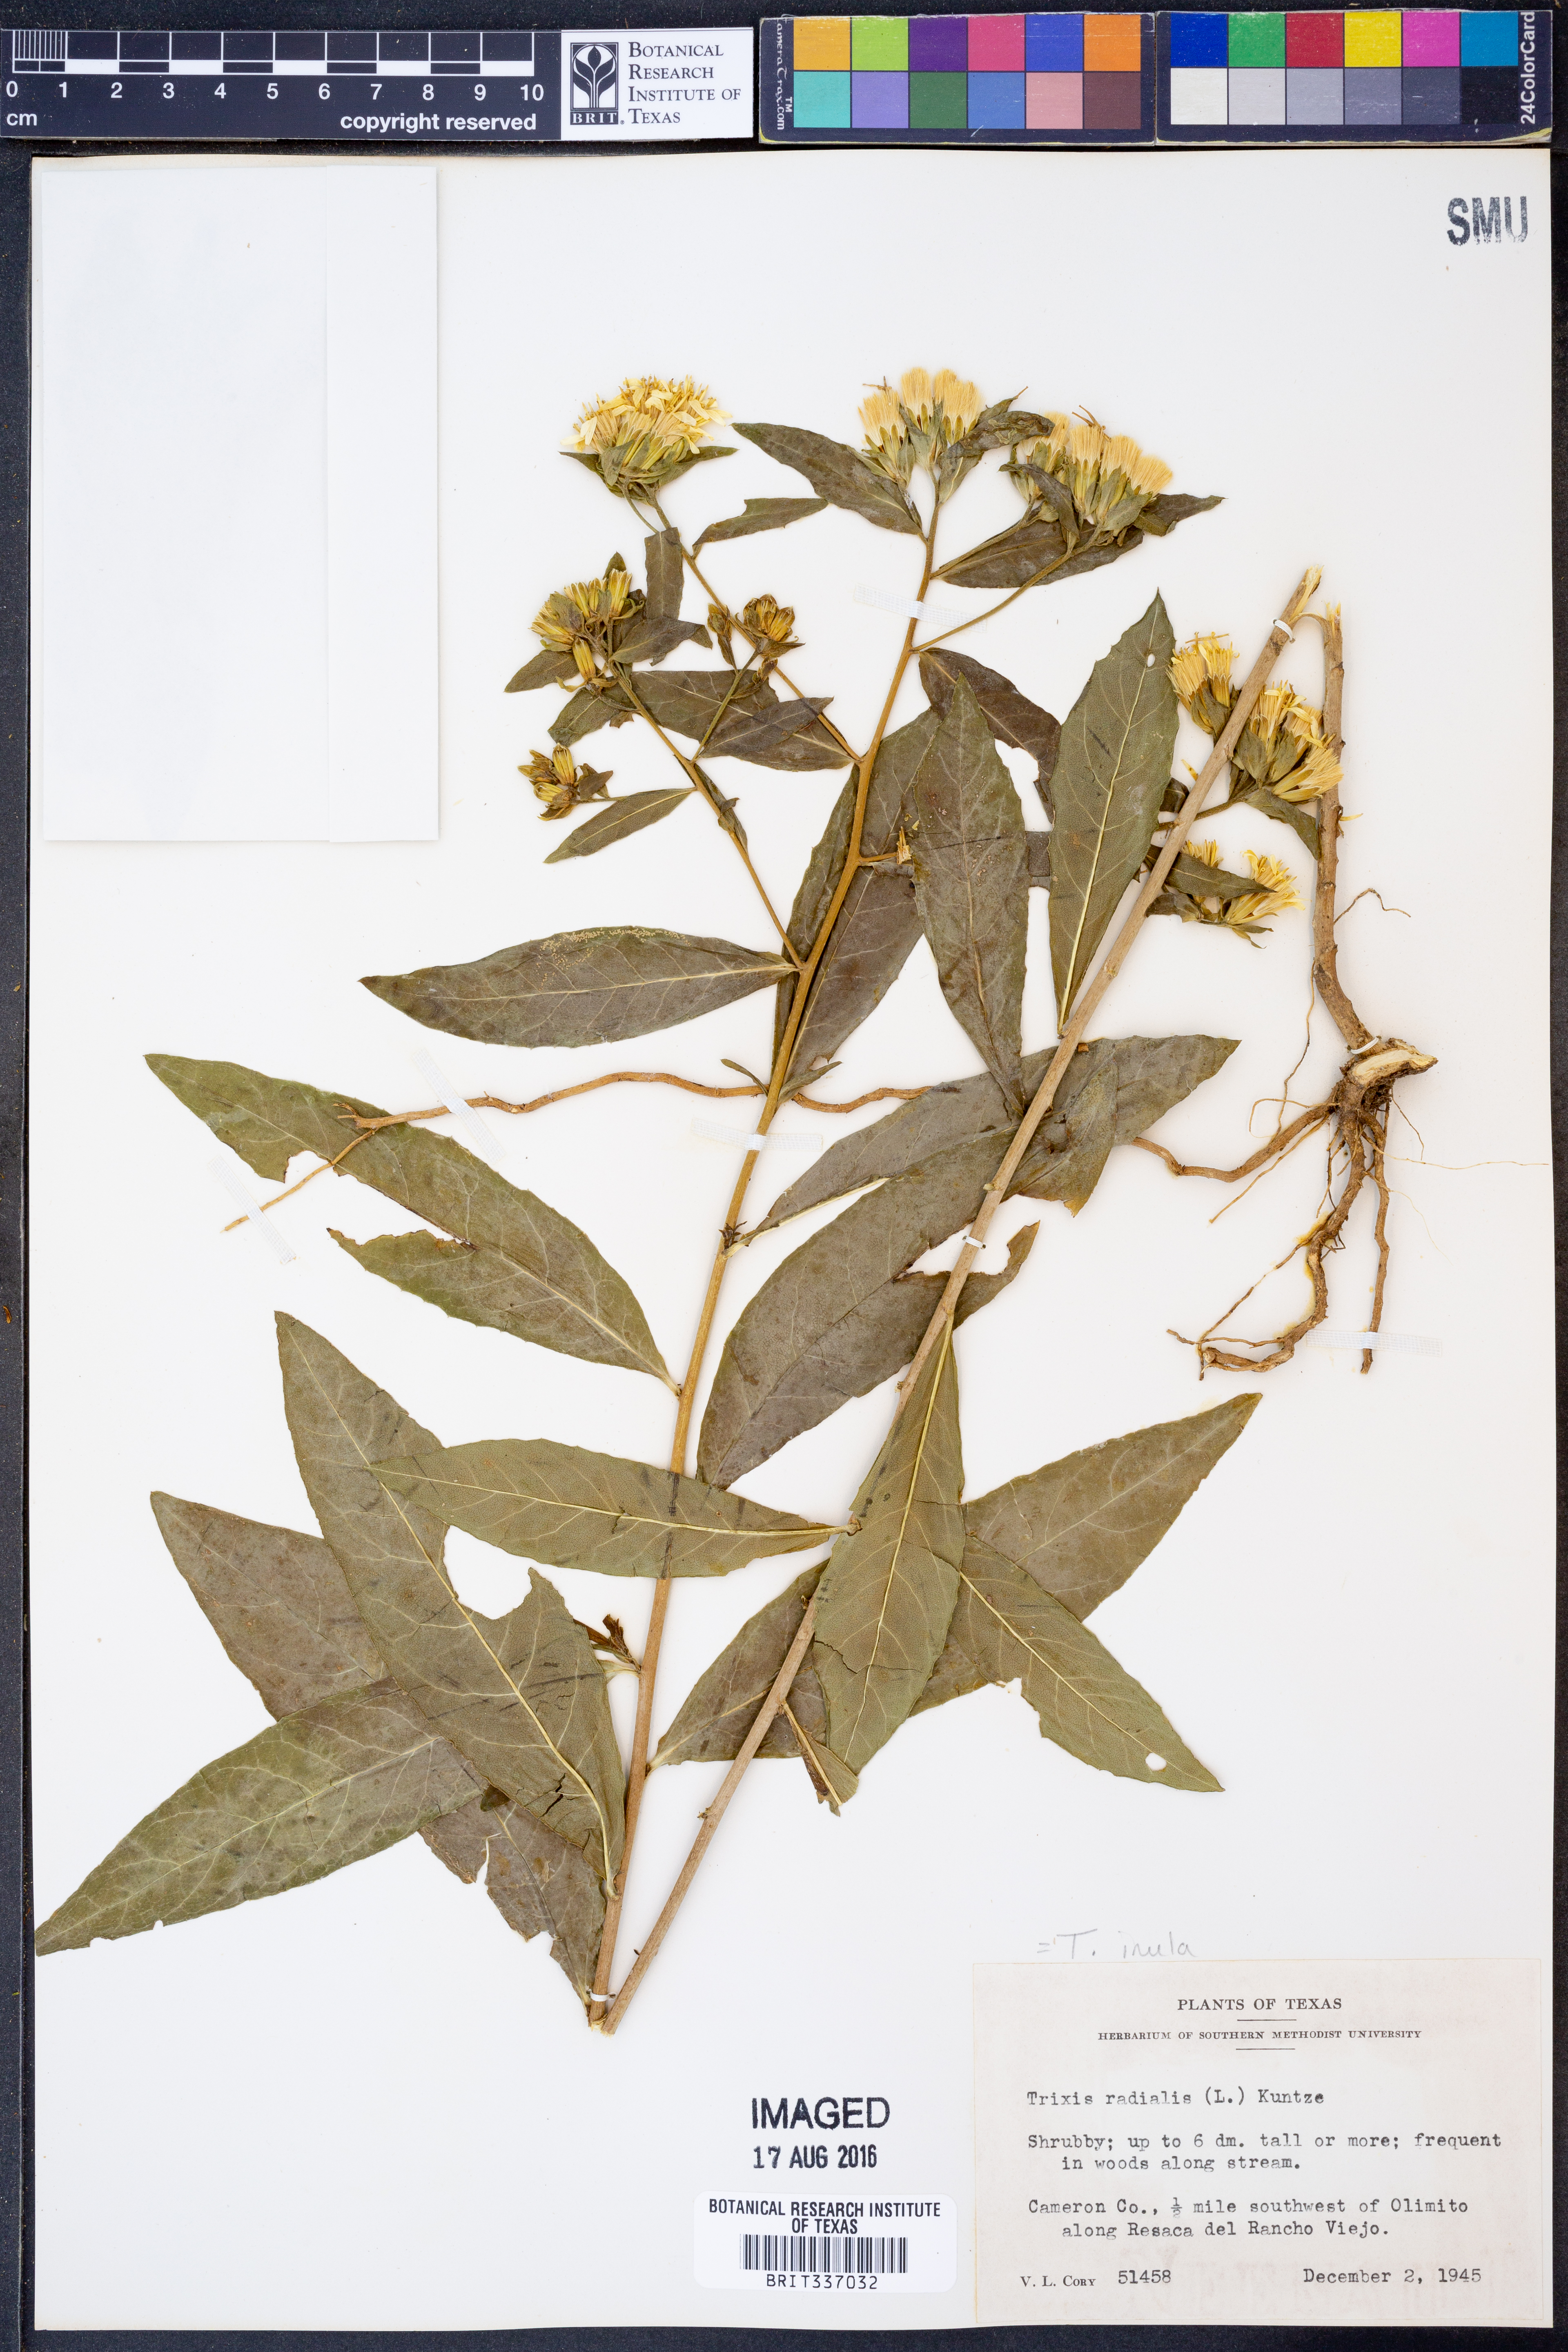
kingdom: Plantae
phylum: Tracheophyta
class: Magnoliopsida
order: Asterales
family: Asteraceae
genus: Trixis
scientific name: Trixis inula
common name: Tropical threefold
